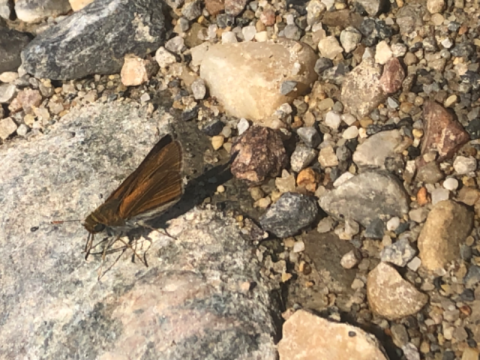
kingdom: Animalia
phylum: Arthropoda
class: Insecta
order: Lepidoptera
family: Hesperiidae
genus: Euphyes
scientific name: Euphyes bimacula
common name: Two-spotted Skipper
